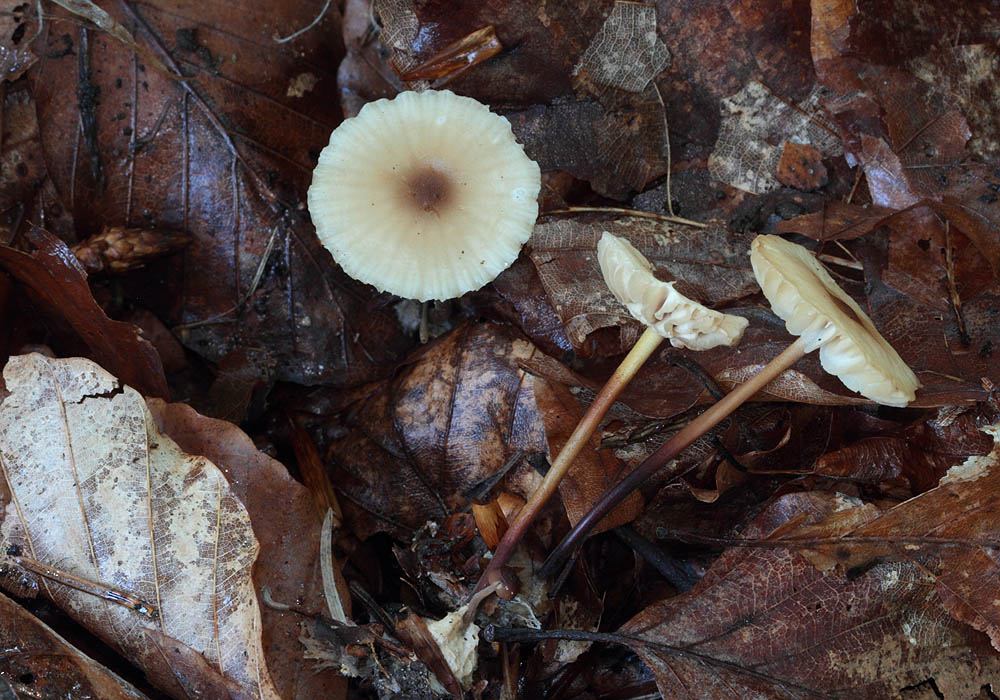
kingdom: Fungi
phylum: Basidiomycota
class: Agaricomycetes
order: Agaricales
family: Marasmiaceae
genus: Marasmius
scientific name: Marasmius torquescens
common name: filtfodet bruskhat
